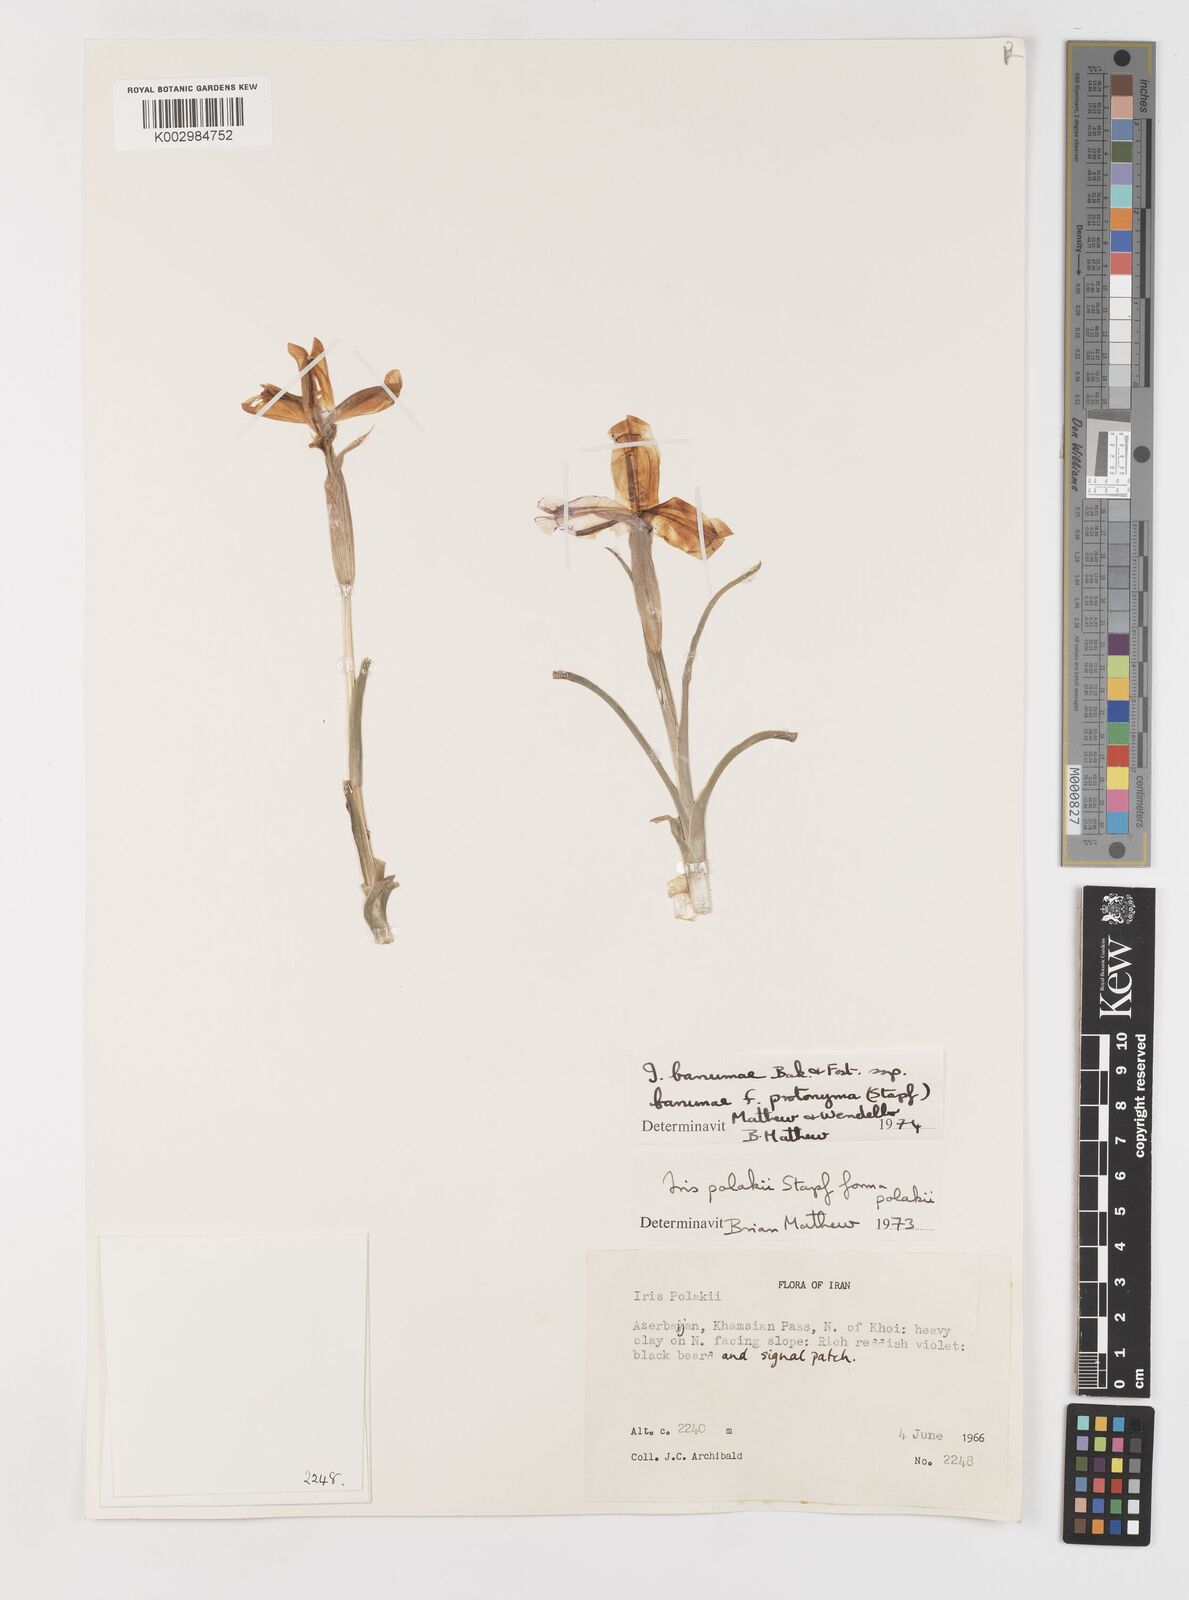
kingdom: Plantae
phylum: Tracheophyta
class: Liliopsida
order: Asparagales
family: Iridaceae
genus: Iris
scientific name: Iris polakii
